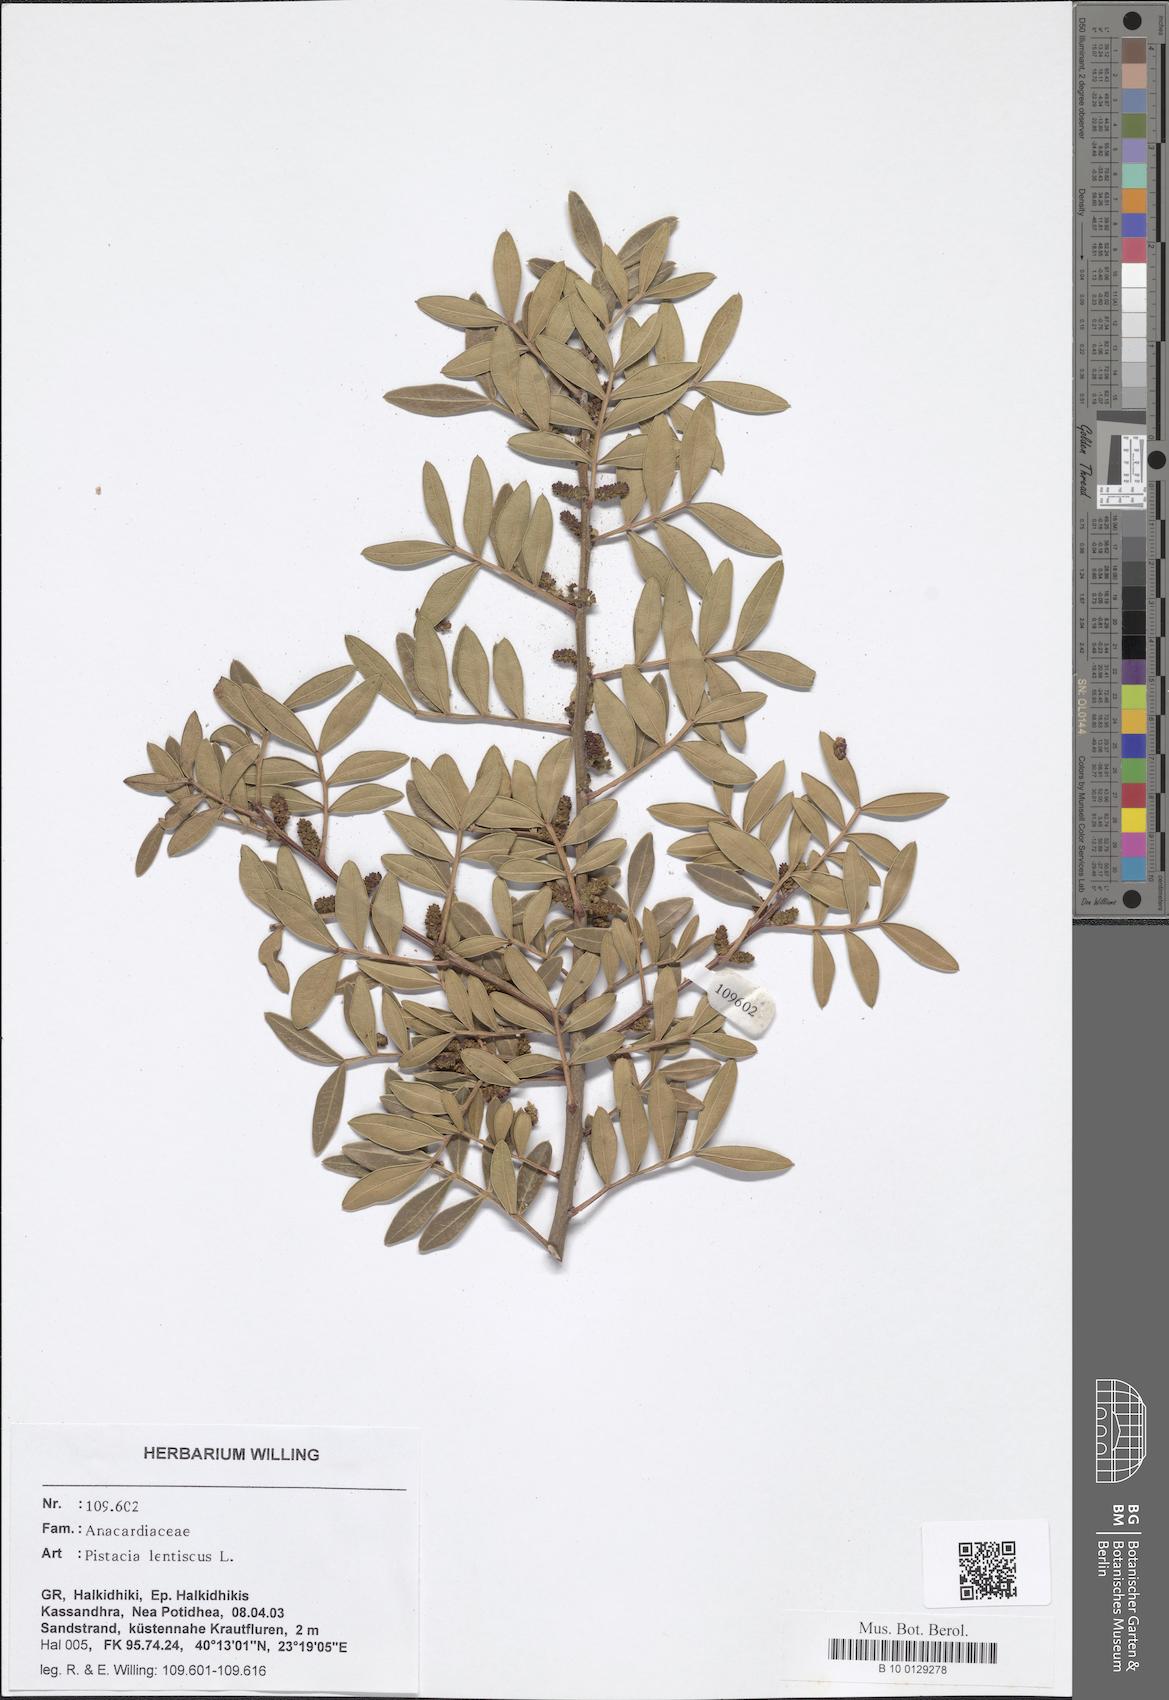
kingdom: Plantae
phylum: Tracheophyta
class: Magnoliopsida
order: Sapindales
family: Anacardiaceae
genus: Pistacia
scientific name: Pistacia lentiscus
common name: Lentisk
